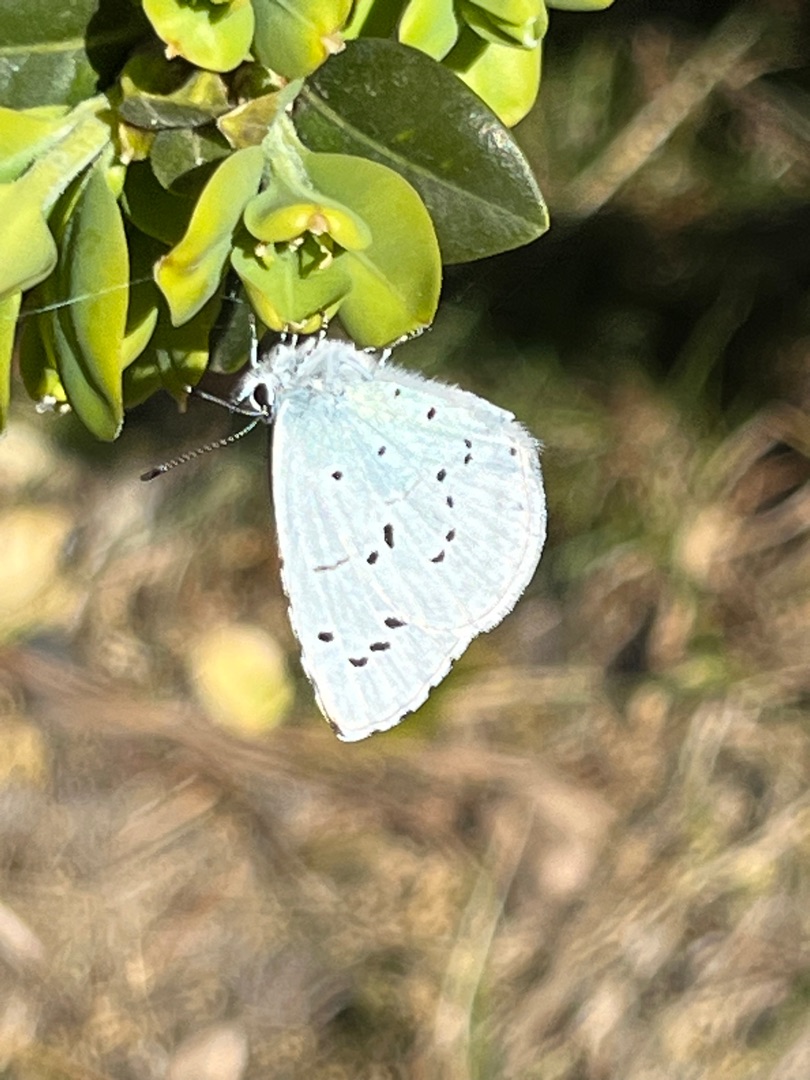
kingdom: Animalia
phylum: Arthropoda
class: Insecta
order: Lepidoptera
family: Lycaenidae
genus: Celastrina
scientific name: Celastrina argiolus
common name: Skovblåfugl
